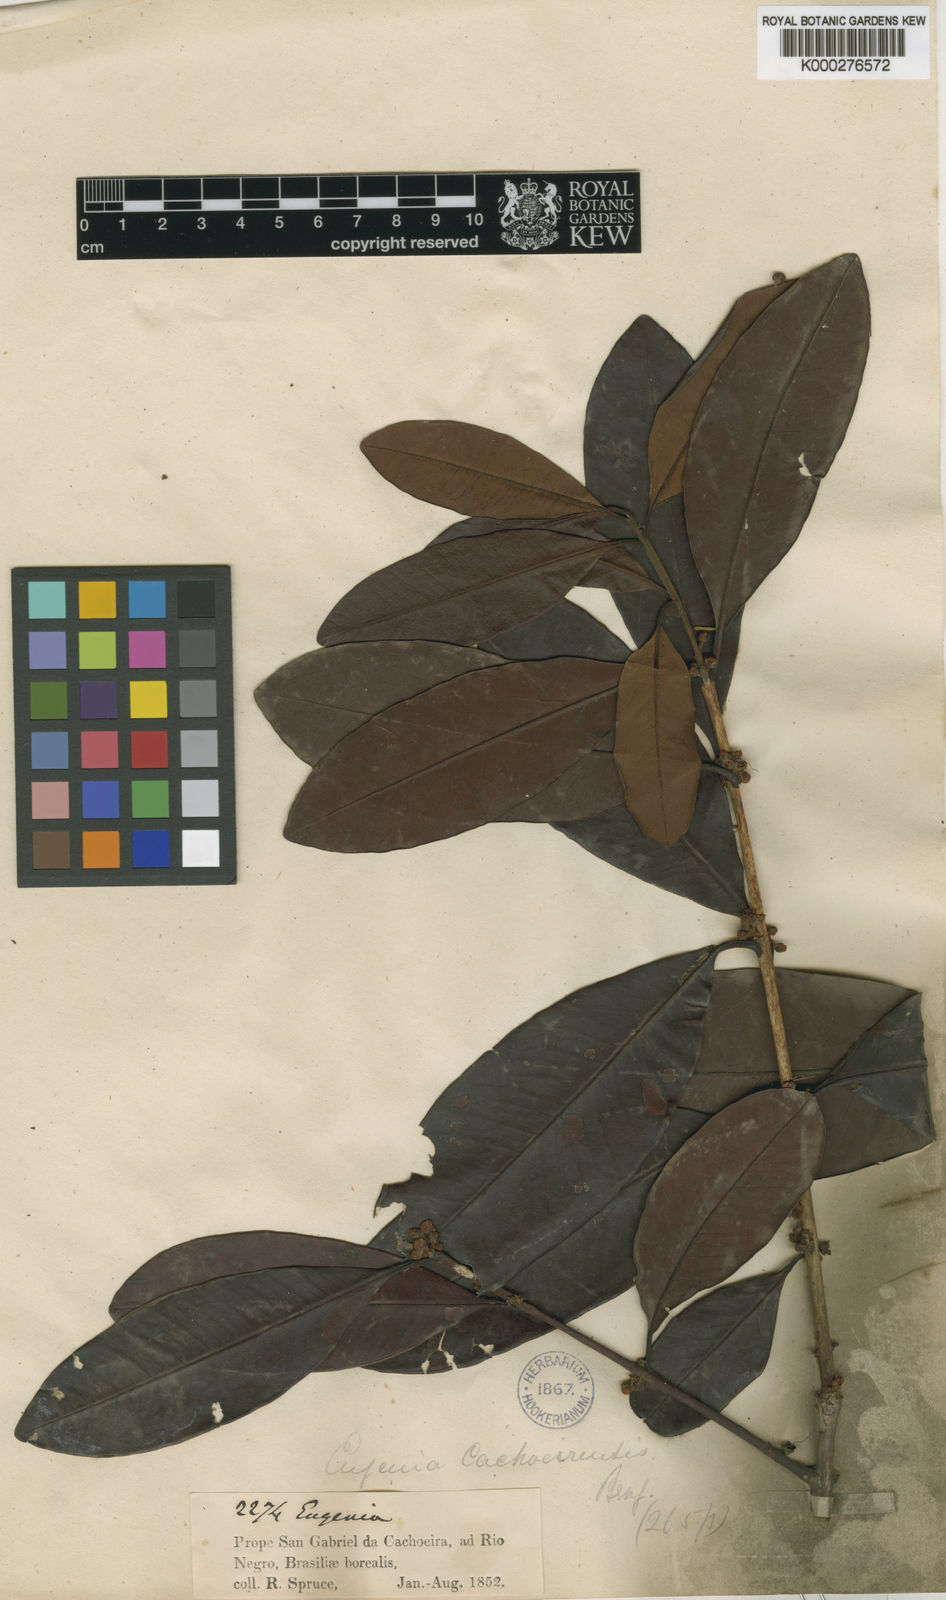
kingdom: Plantae
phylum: Tracheophyta
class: Magnoliopsida
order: Myrtales
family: Myrtaceae
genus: Eugenia
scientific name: Eugenia cachoeirensis
